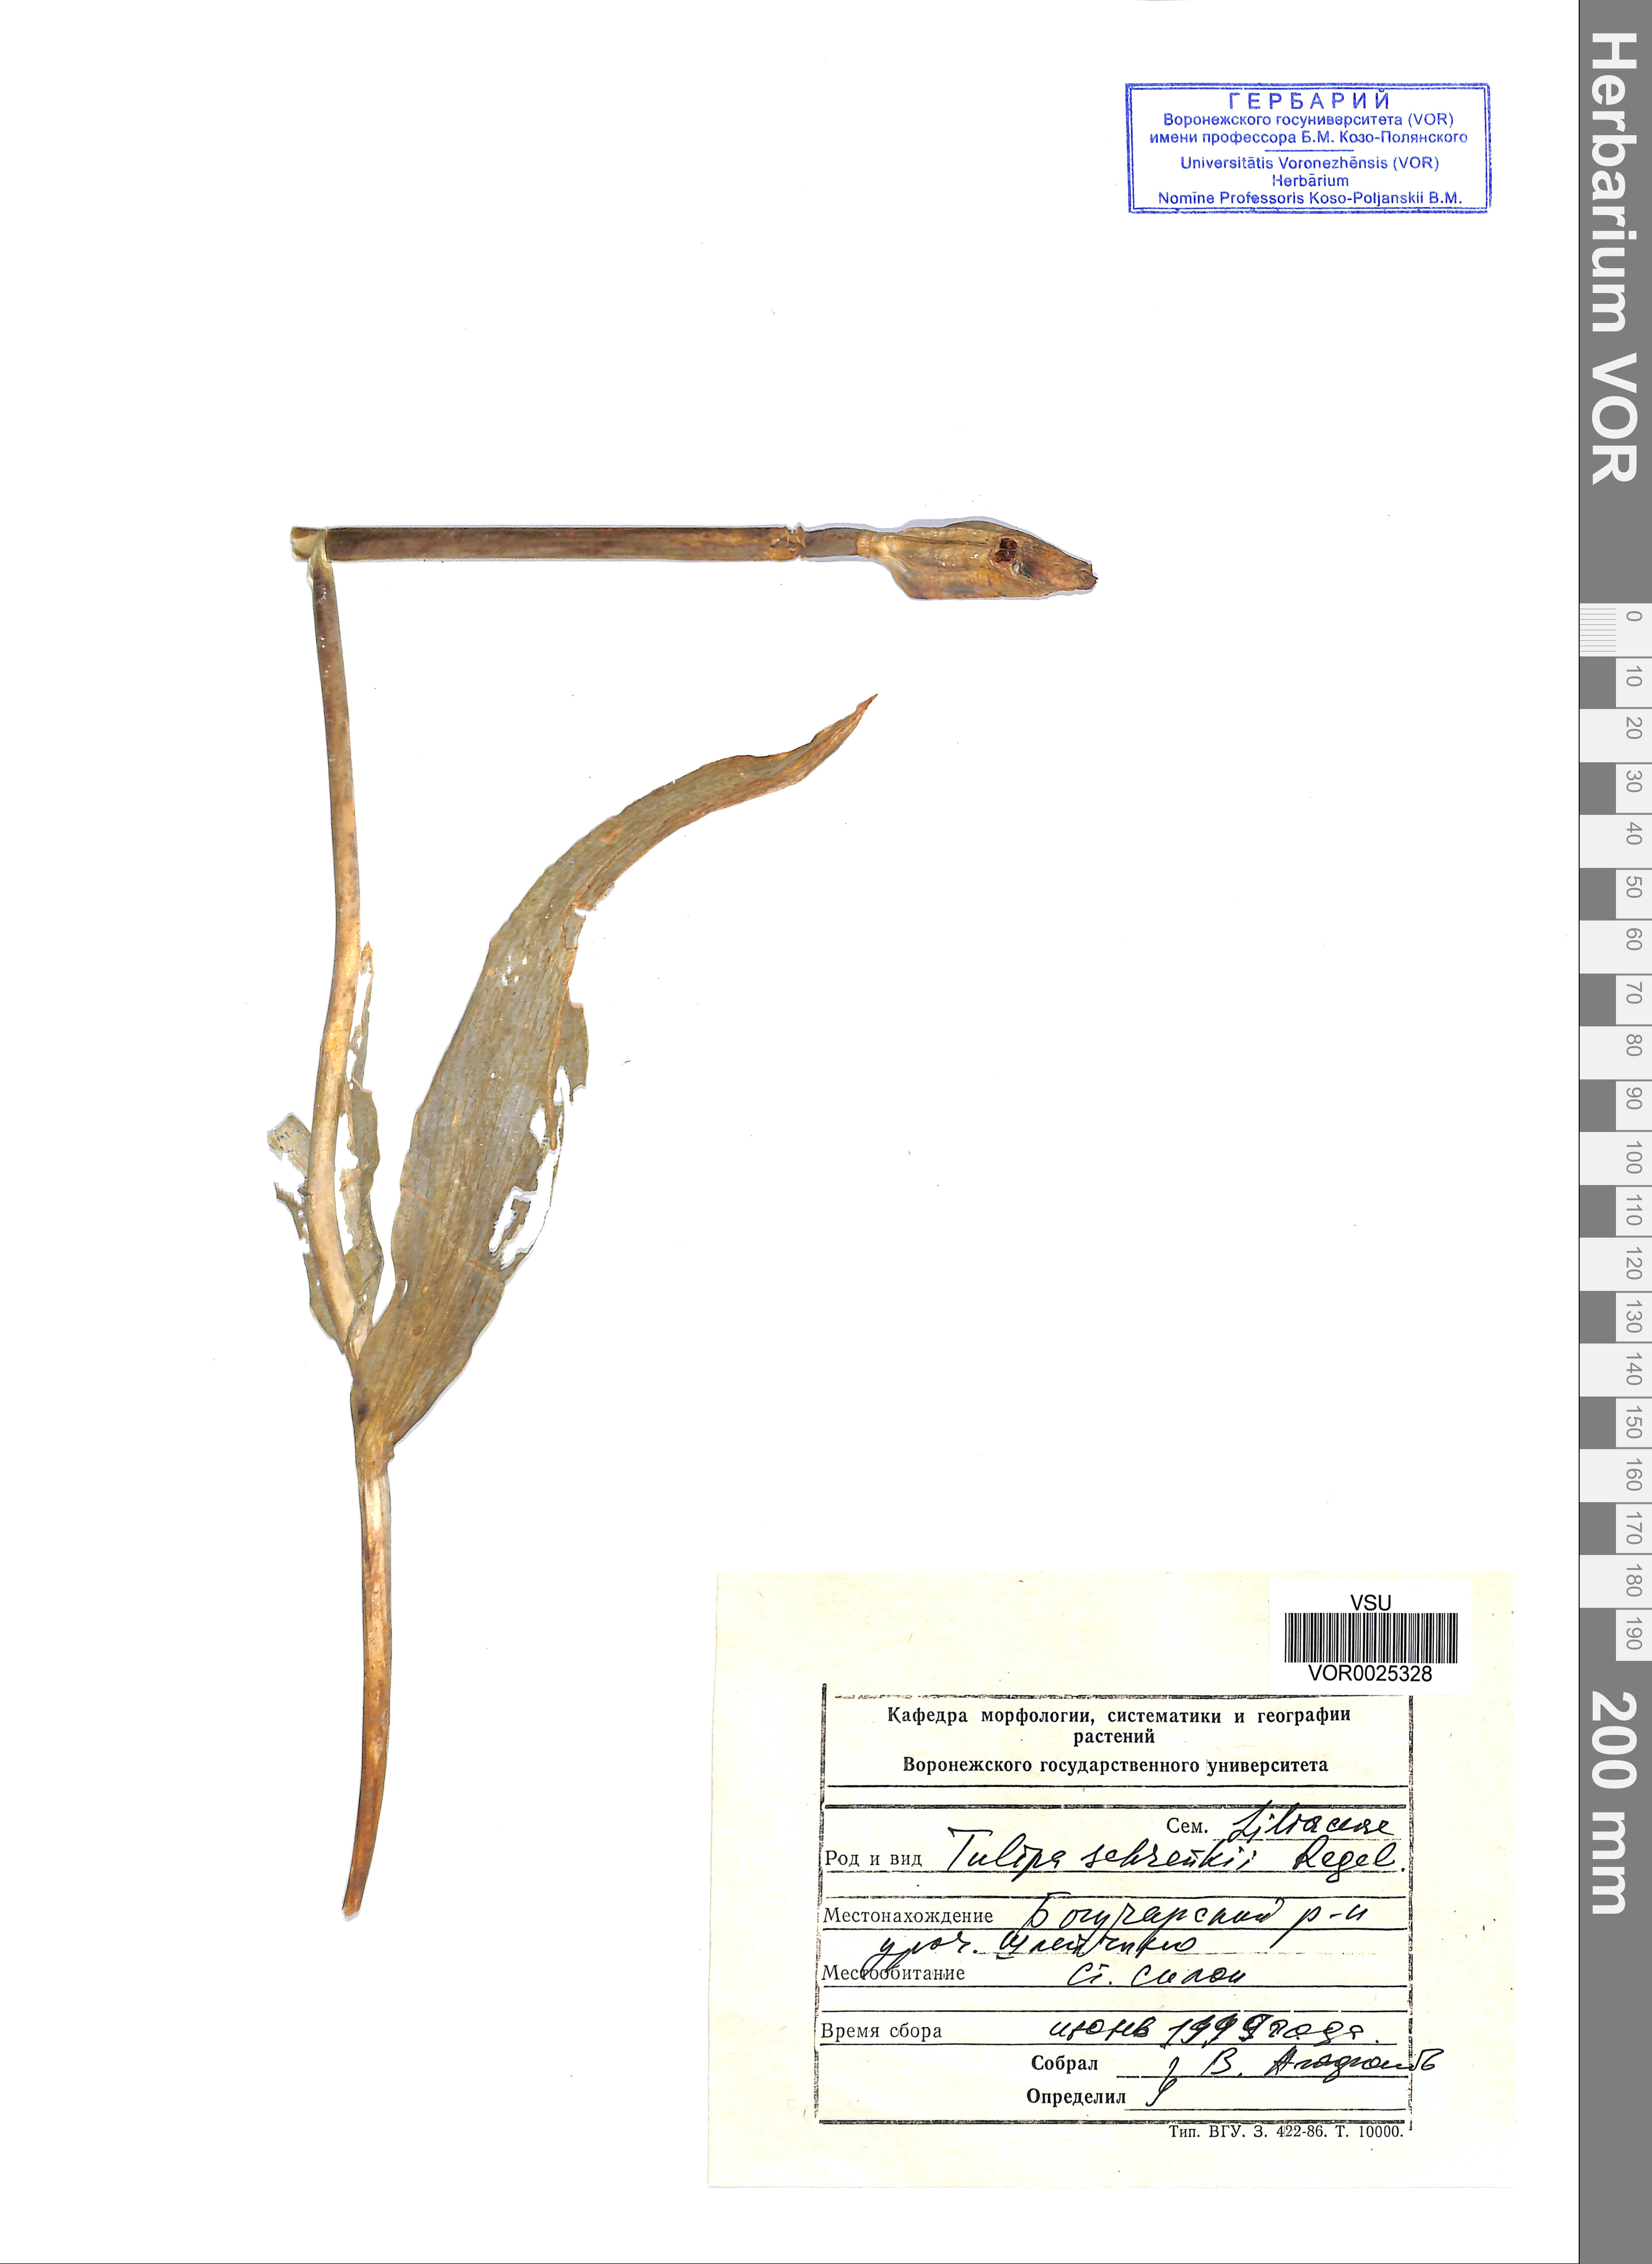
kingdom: Plantae
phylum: Tracheophyta
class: Liliopsida
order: Liliales
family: Liliaceae
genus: Tulipa
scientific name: Tulipa suaveolens
